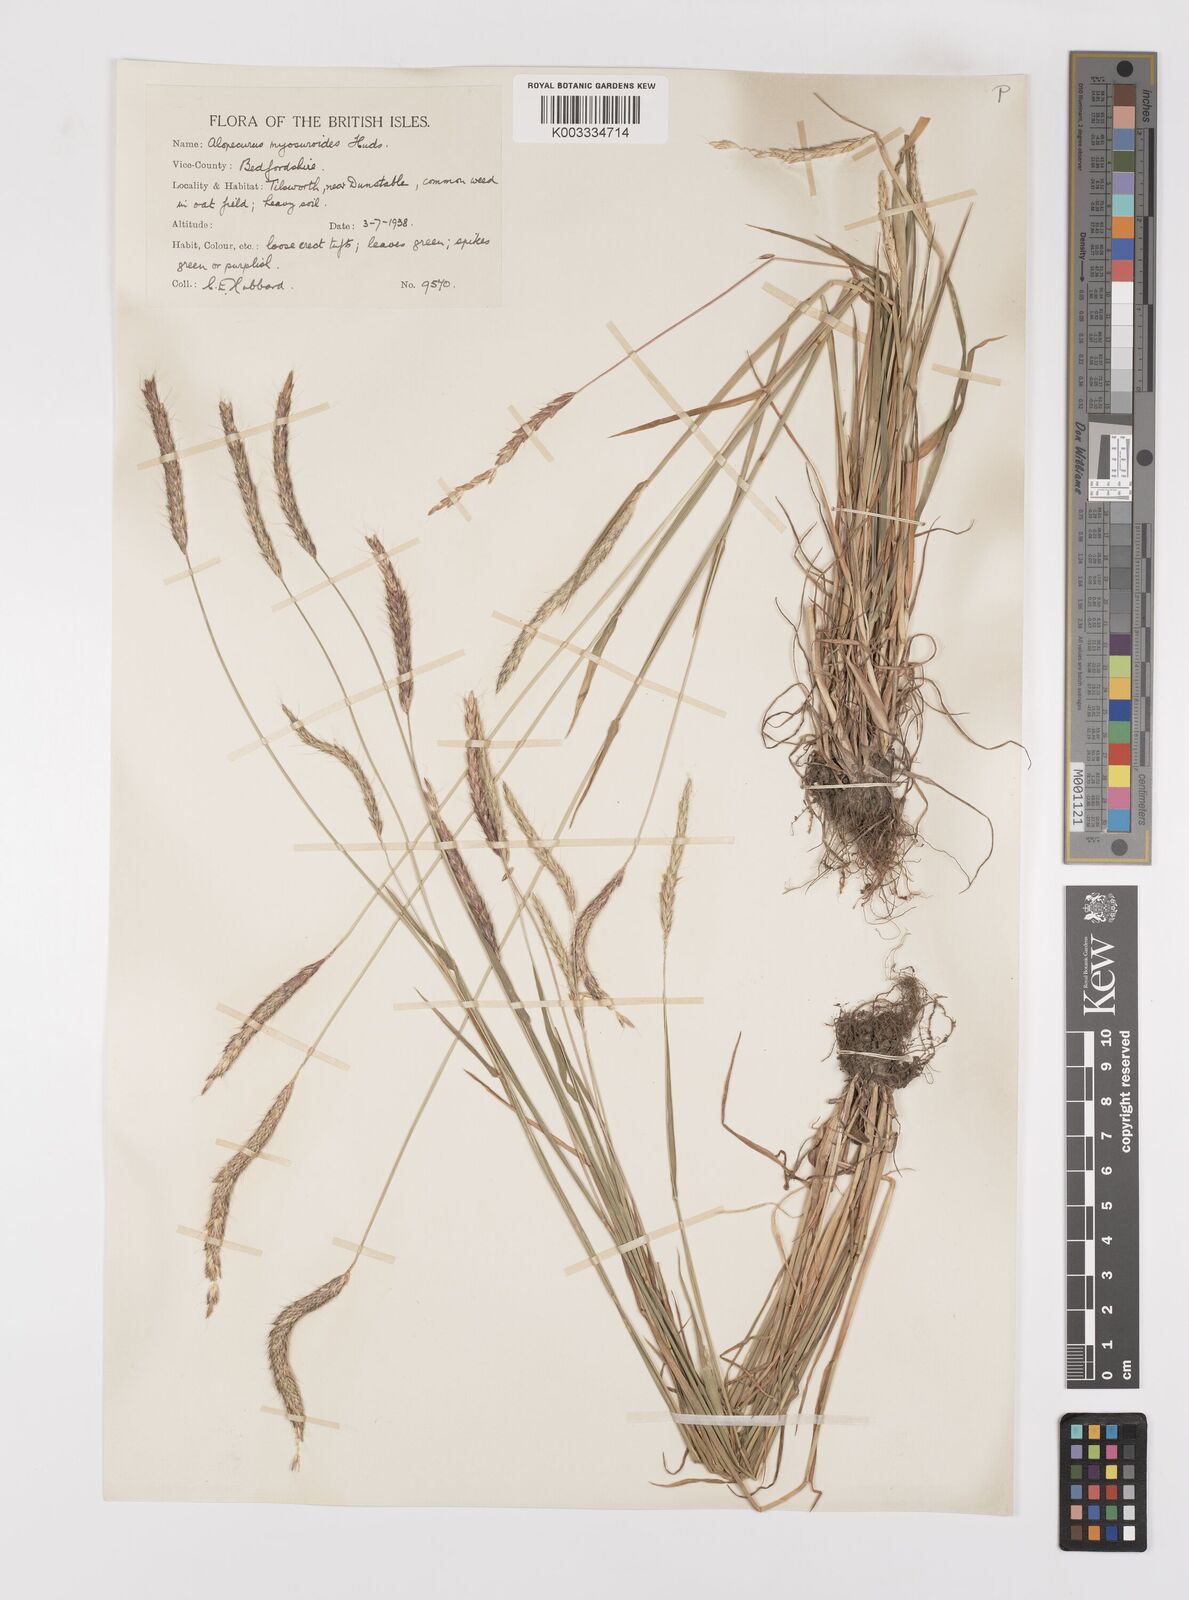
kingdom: Plantae
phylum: Tracheophyta
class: Liliopsida
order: Poales
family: Poaceae
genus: Alopecurus
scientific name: Alopecurus myosuroides
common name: Black-grass
